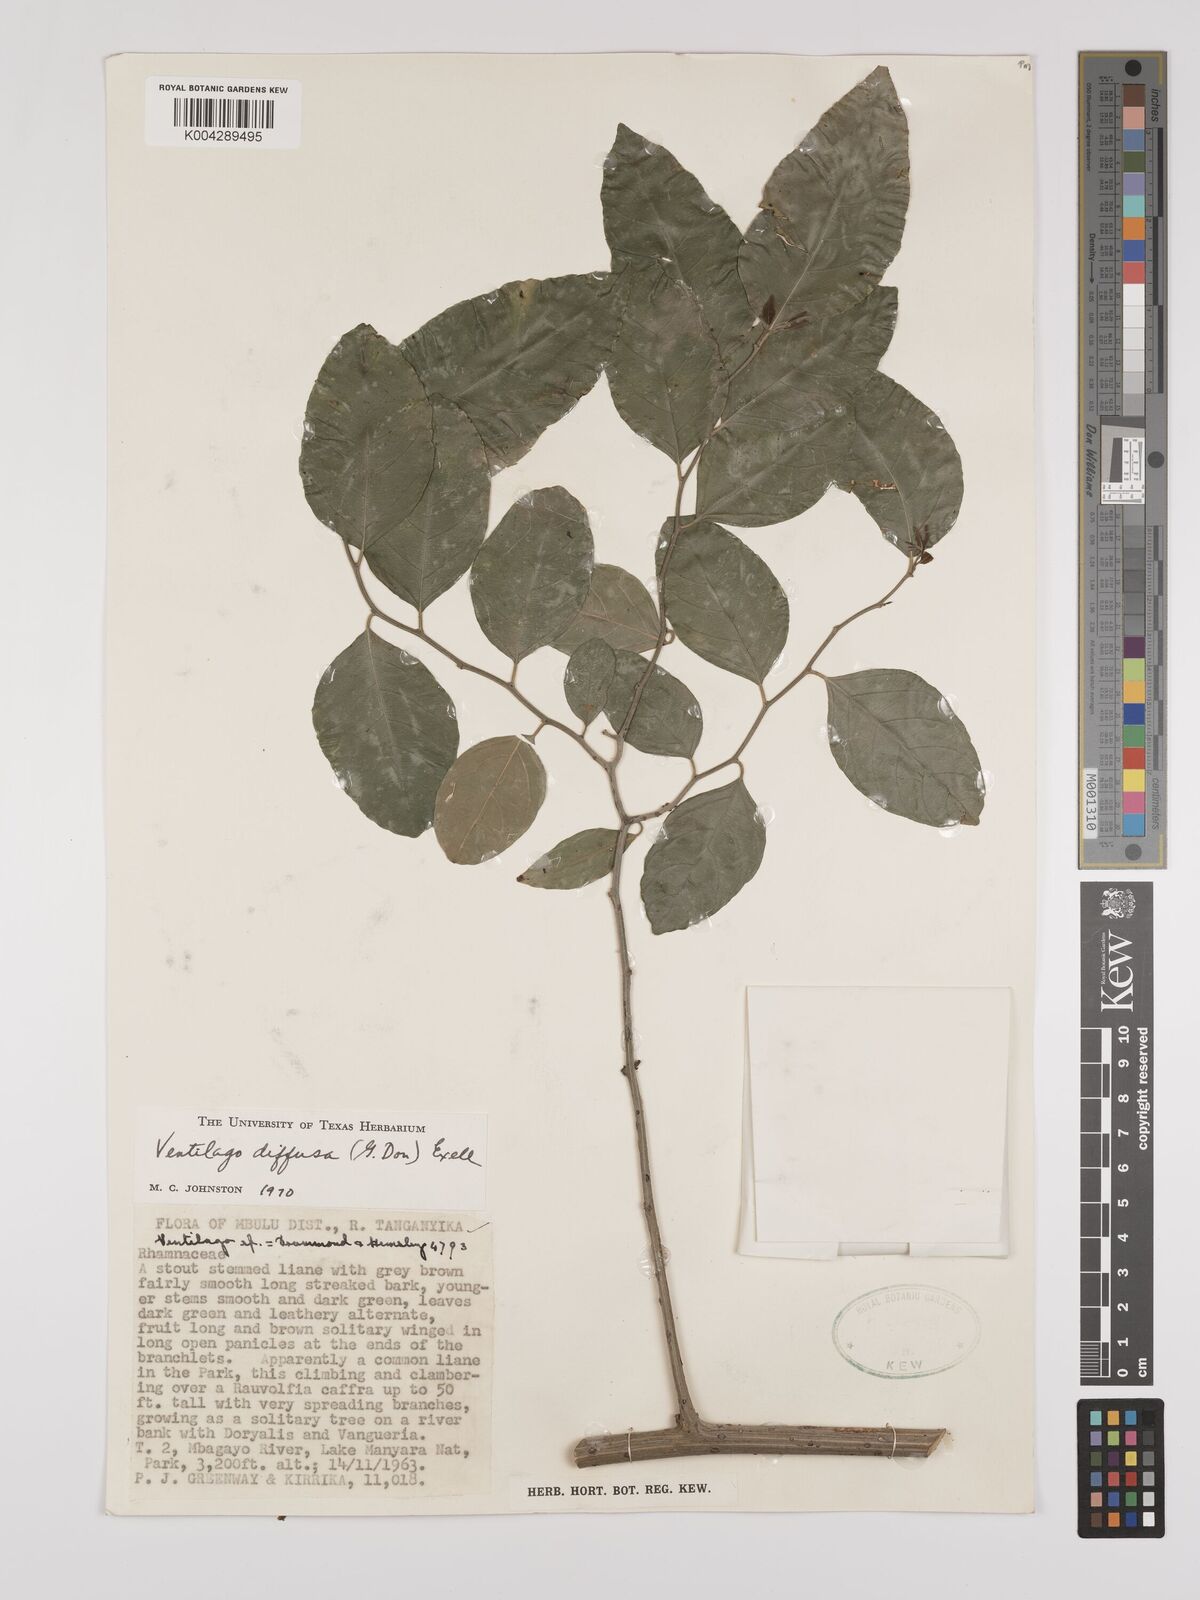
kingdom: Plantae
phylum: Tracheophyta
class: Magnoliopsida
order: Rosales
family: Rhamnaceae
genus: Ventilago
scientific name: Ventilago diffusa
